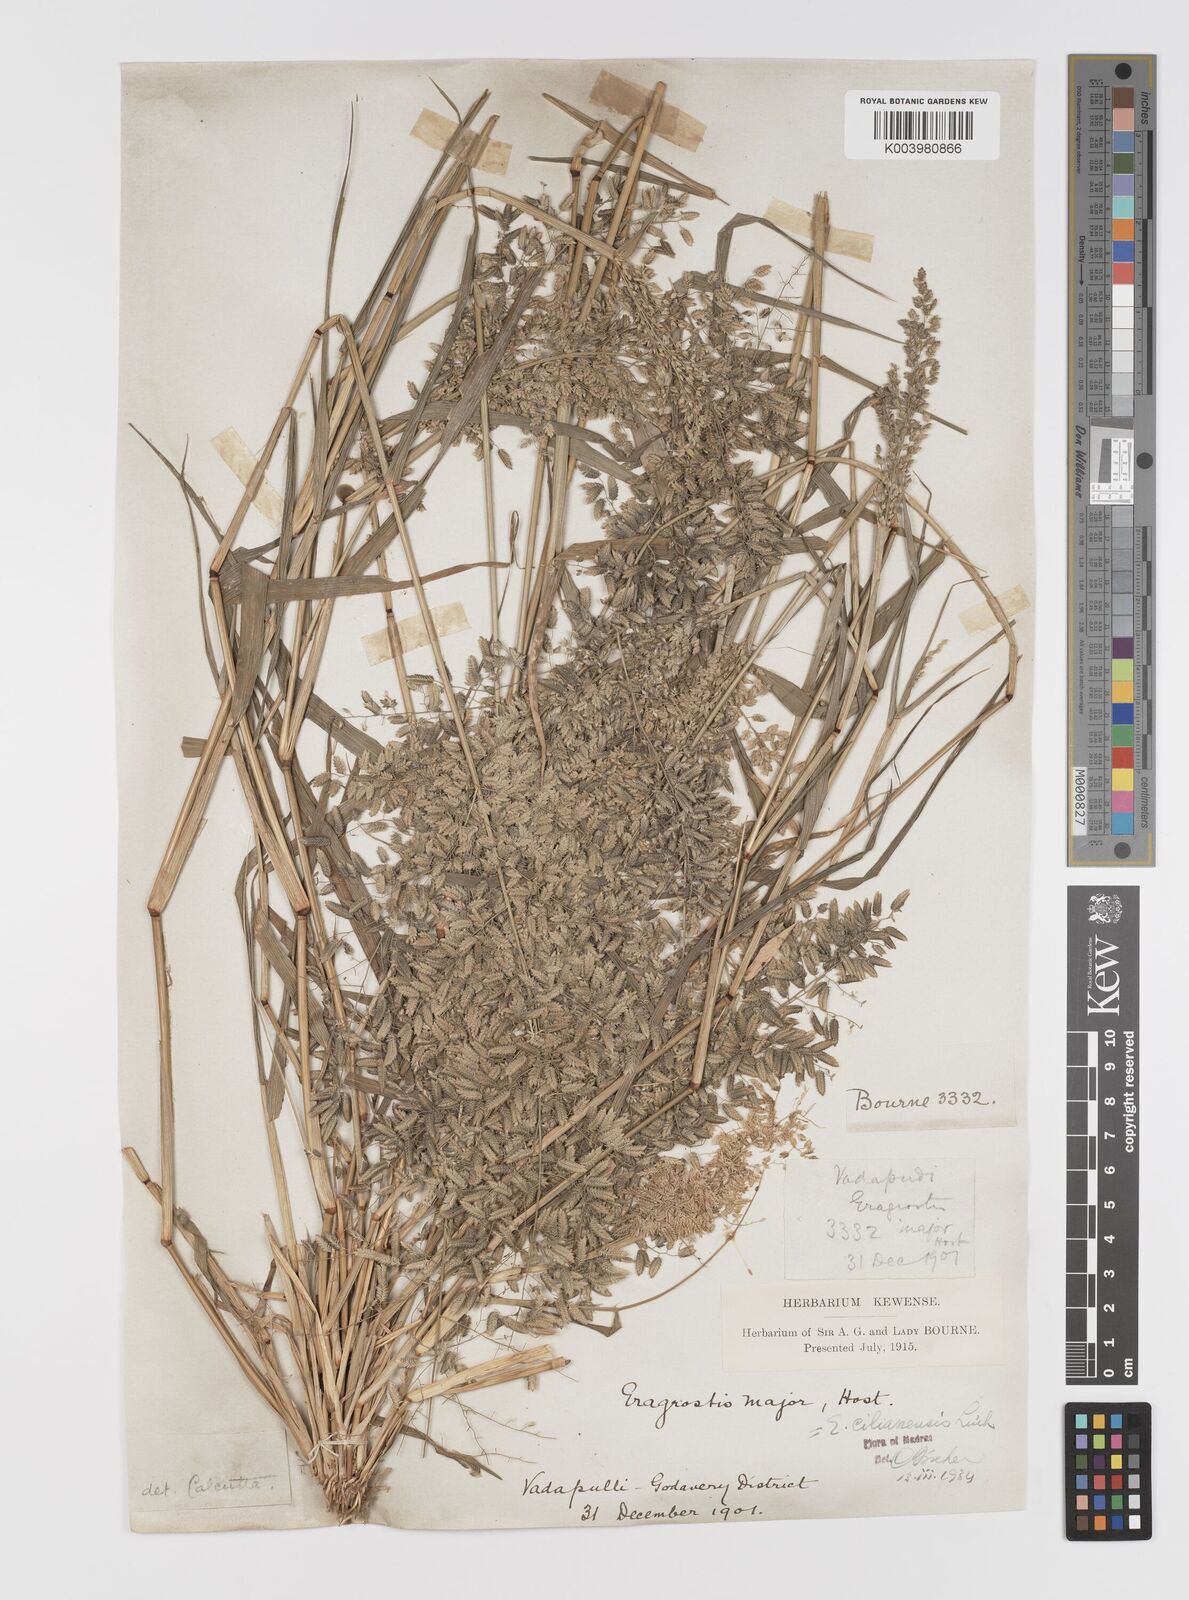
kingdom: Plantae
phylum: Tracheophyta
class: Liliopsida
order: Poales
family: Poaceae
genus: Eragrostis
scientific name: Eragrostis cilianensis
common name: Stinkgrass
